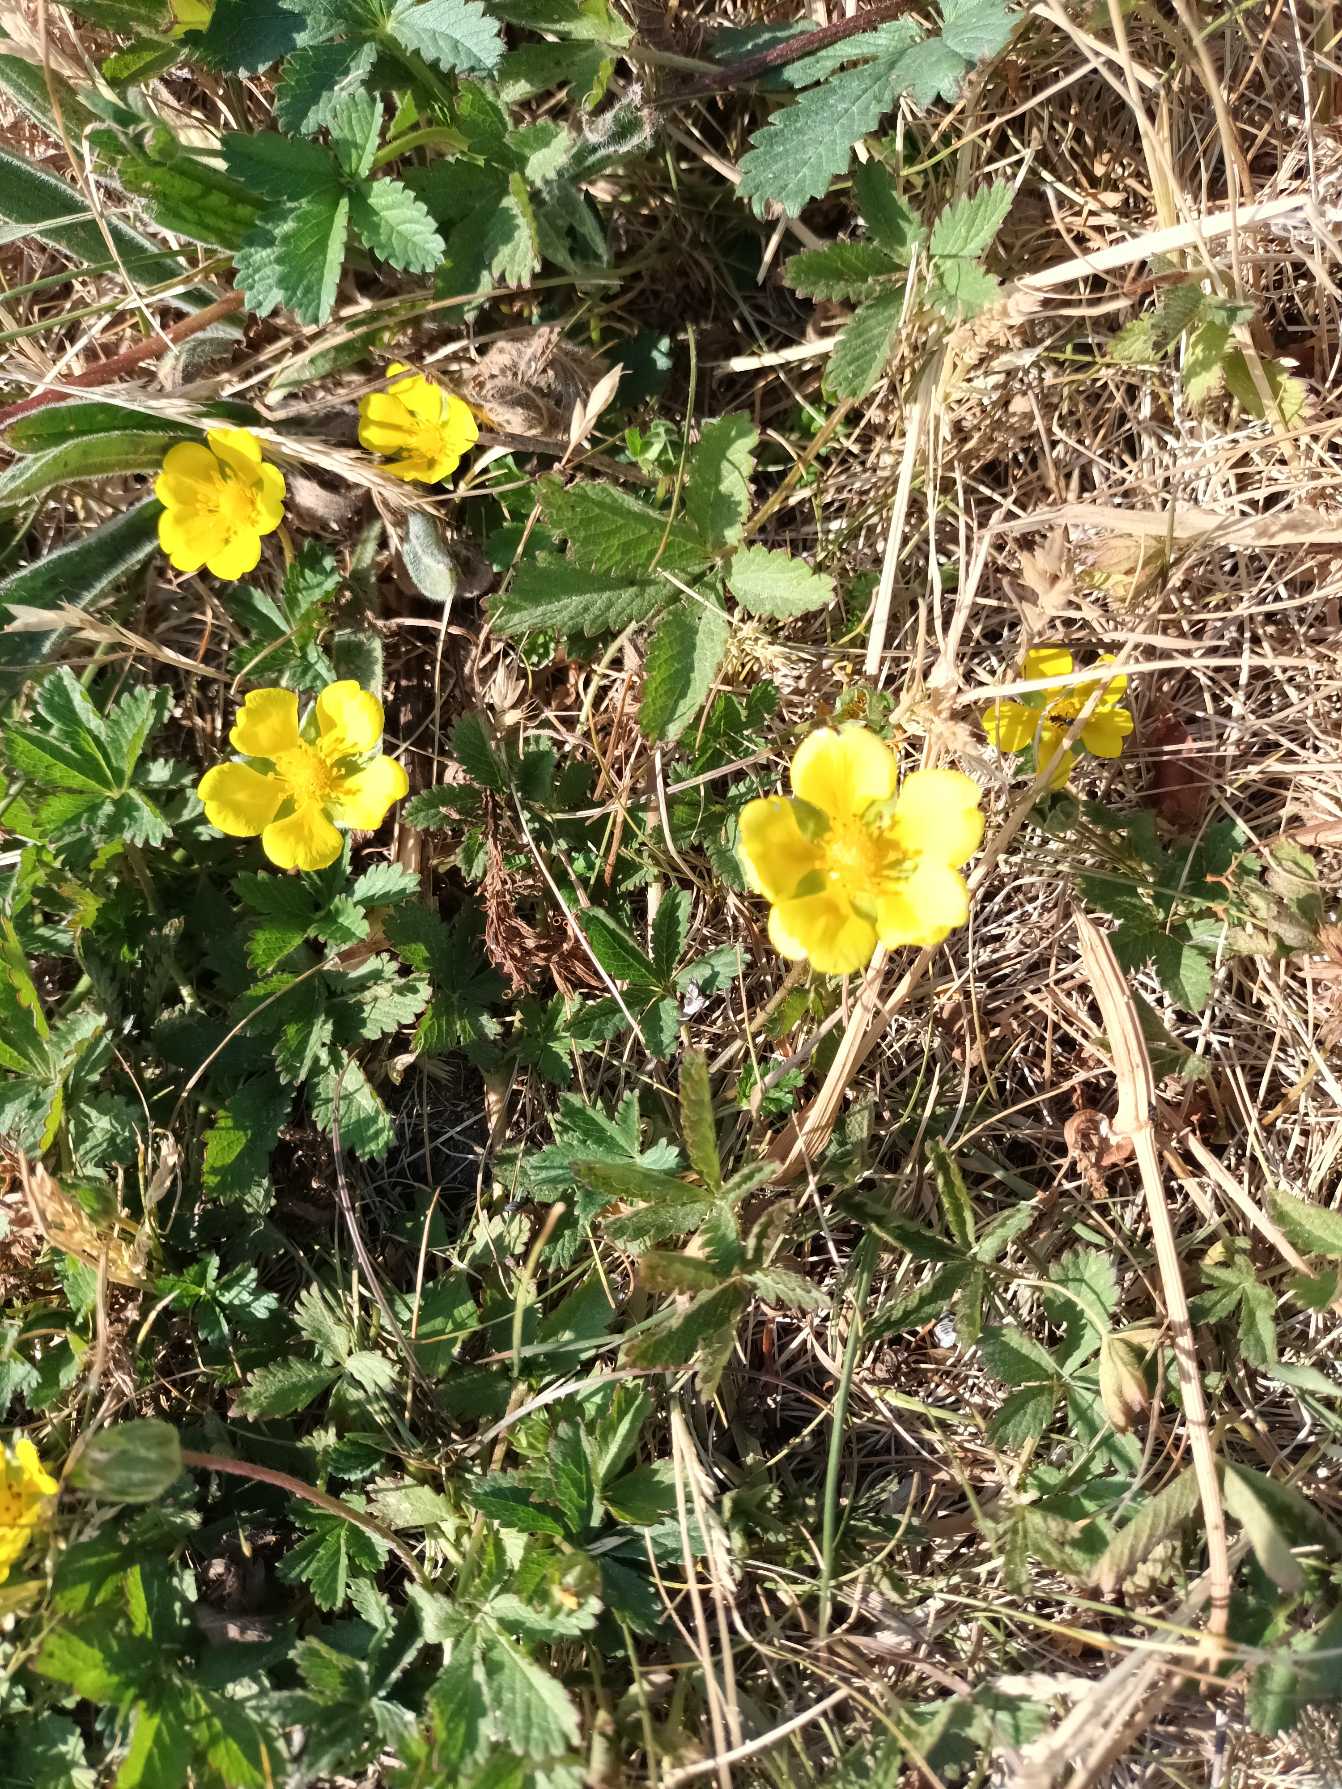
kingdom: Plantae
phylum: Tracheophyta
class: Magnoliopsida
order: Rosales
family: Rosaceae
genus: Potentilla
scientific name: Potentilla reptans
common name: Krybende potentil
